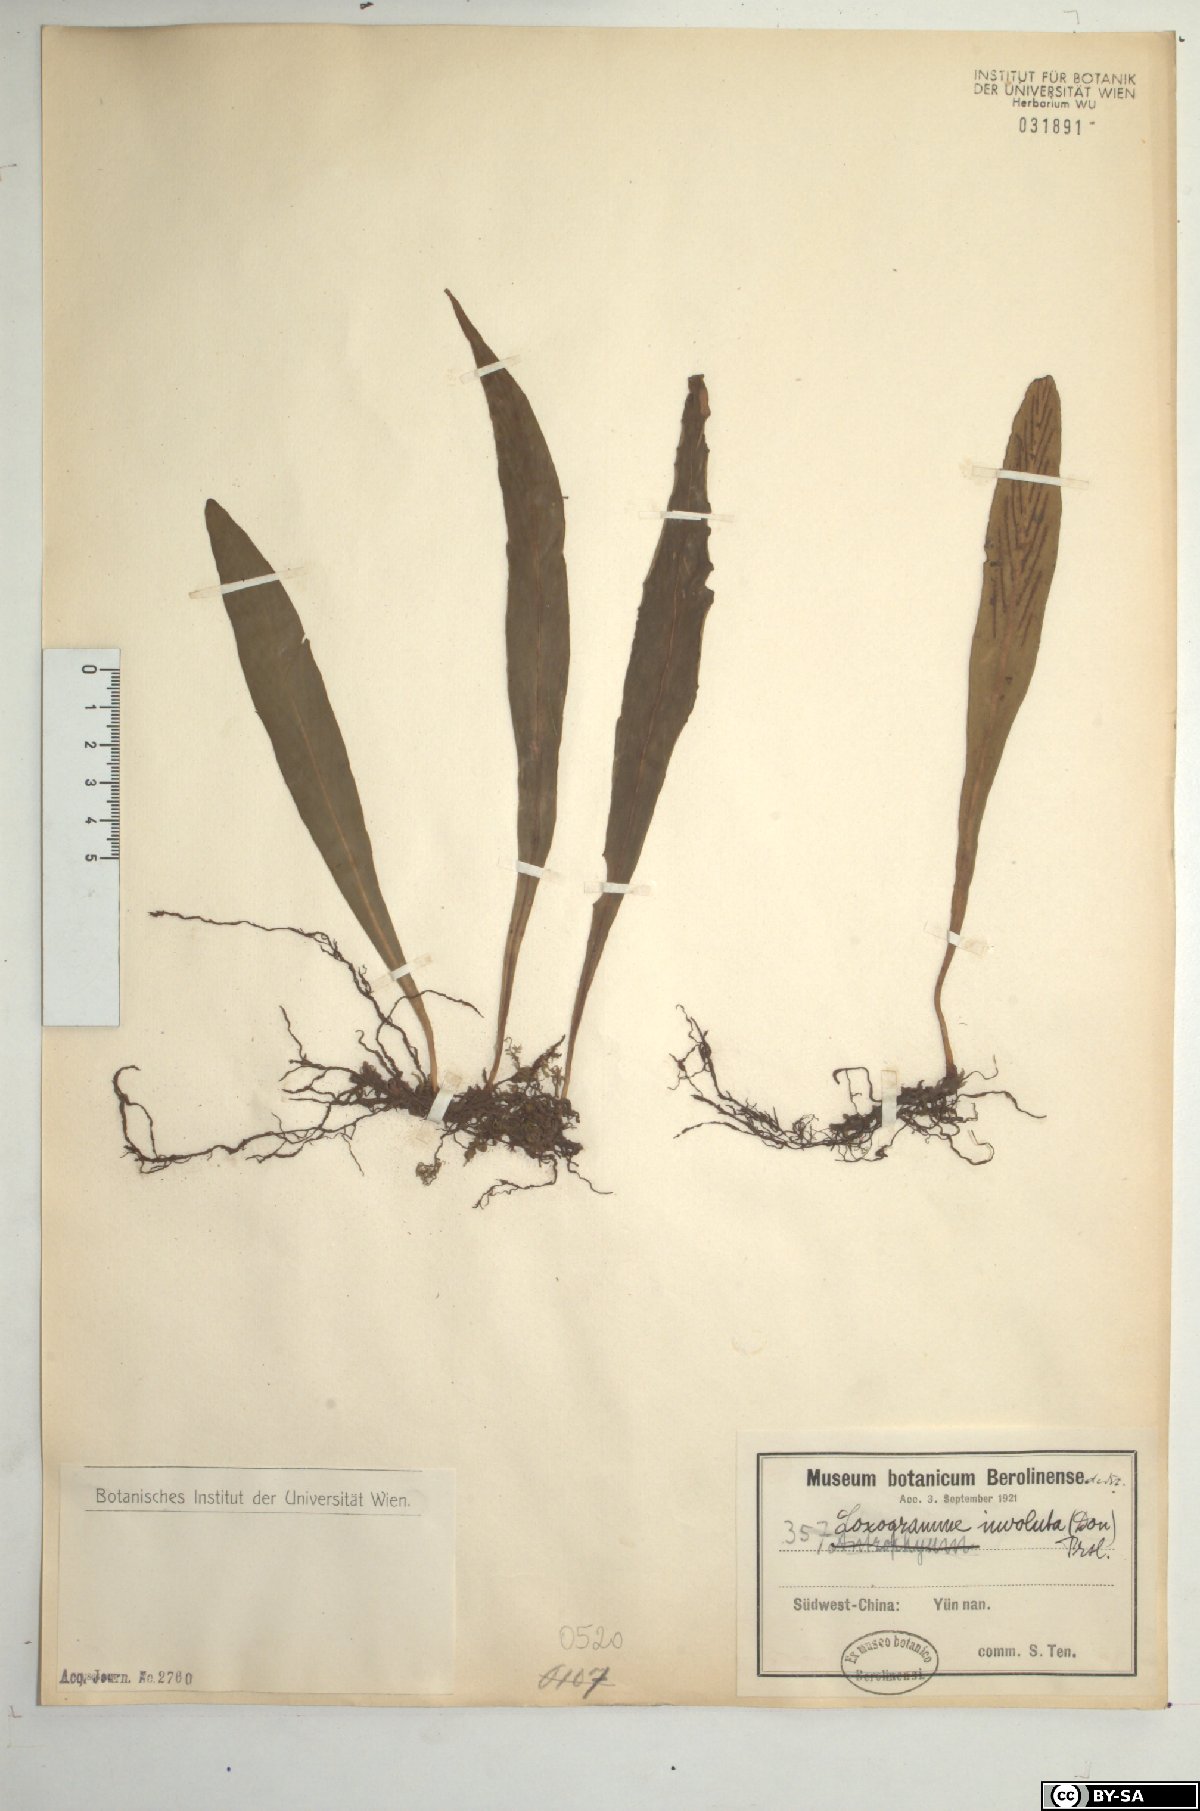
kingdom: Plantae
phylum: Tracheophyta
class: Polypodiopsida
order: Polypodiales
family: Polypodiaceae
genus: Loxogramme
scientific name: Loxogramme involuta
